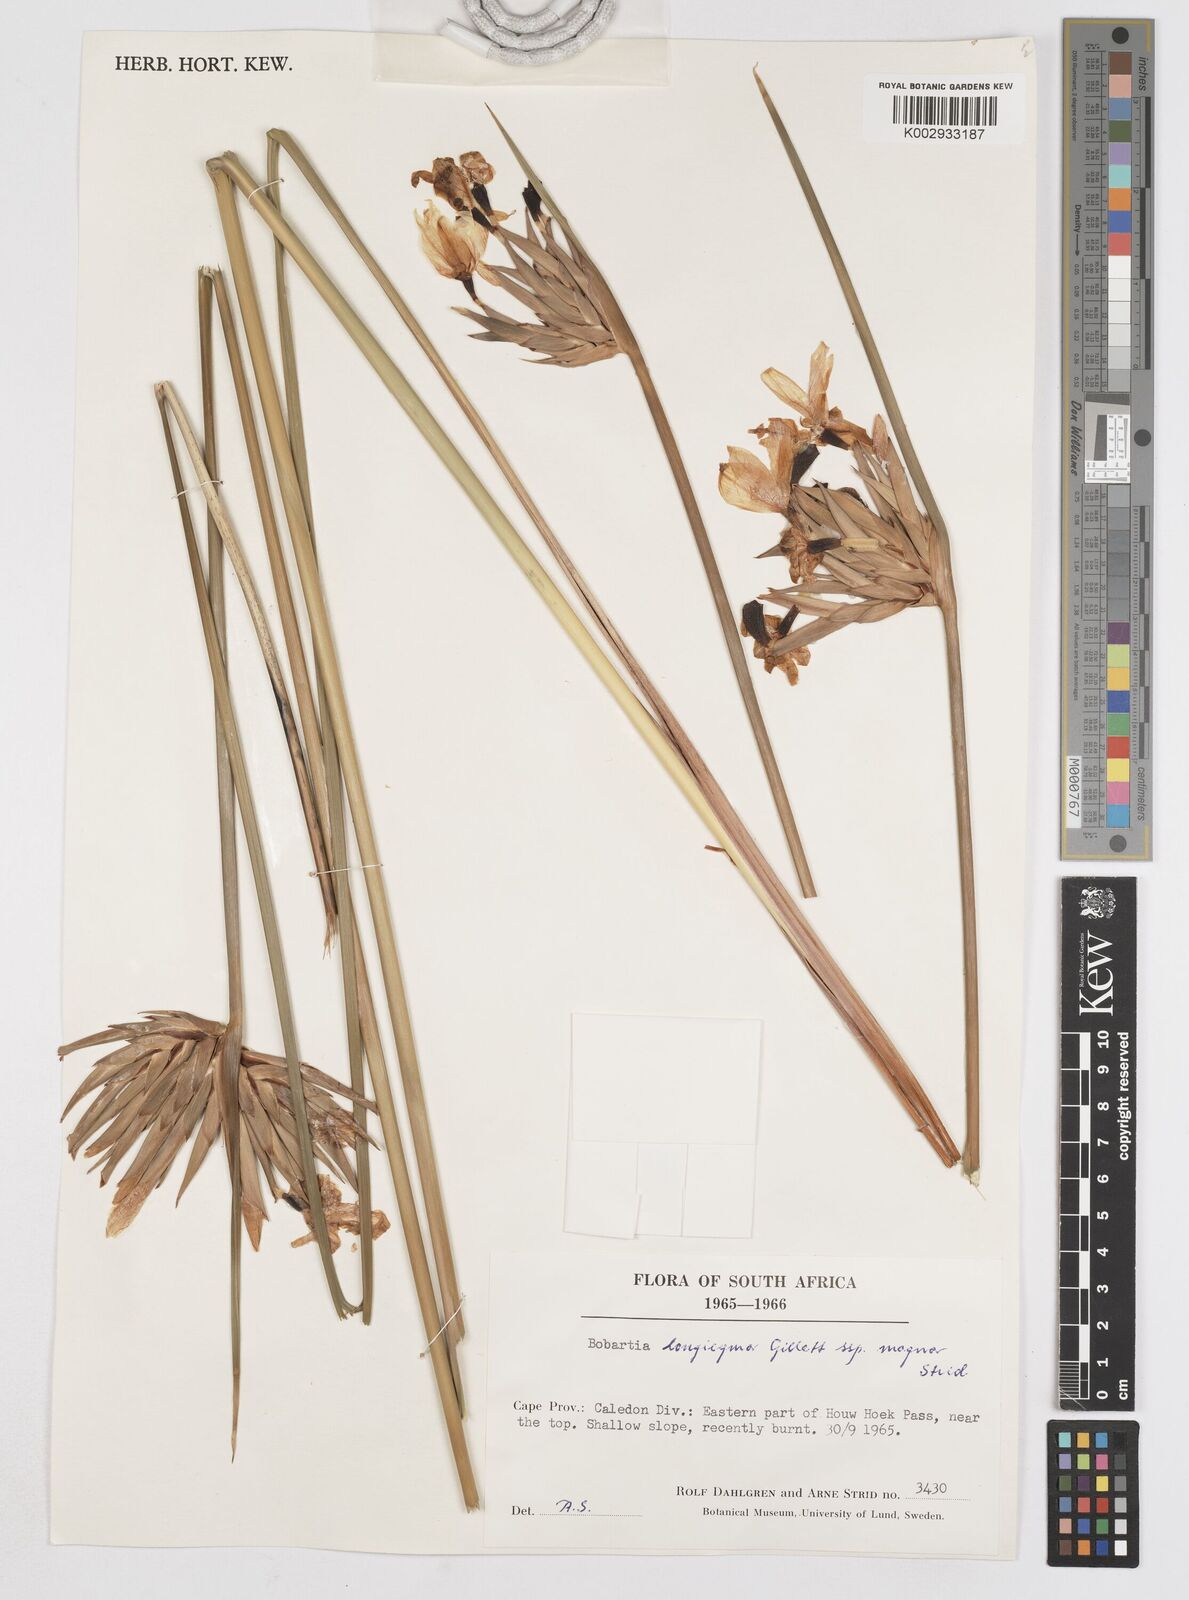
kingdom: Plantae
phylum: Tracheophyta
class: Liliopsida
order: Asparagales
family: Iridaceae
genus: Bobartia
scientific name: Bobartia longicyma
